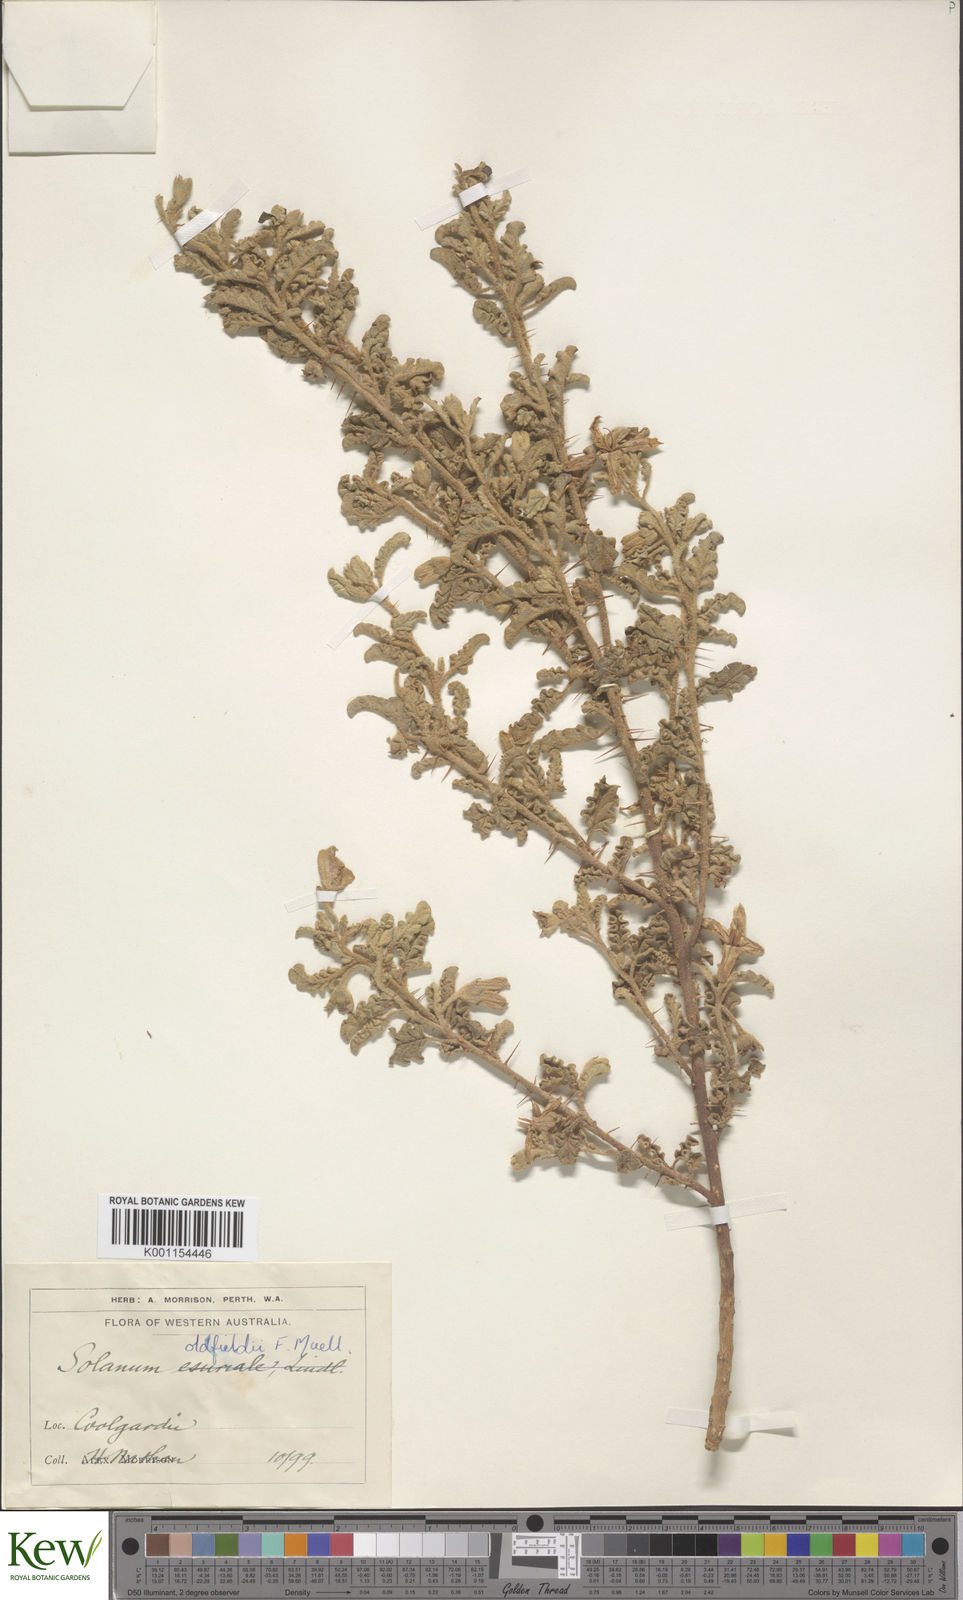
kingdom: Plantae
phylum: Tracheophyta
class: Magnoliopsida
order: Solanales
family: Solanaceae
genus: Solanum
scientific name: Solanum plicatile
